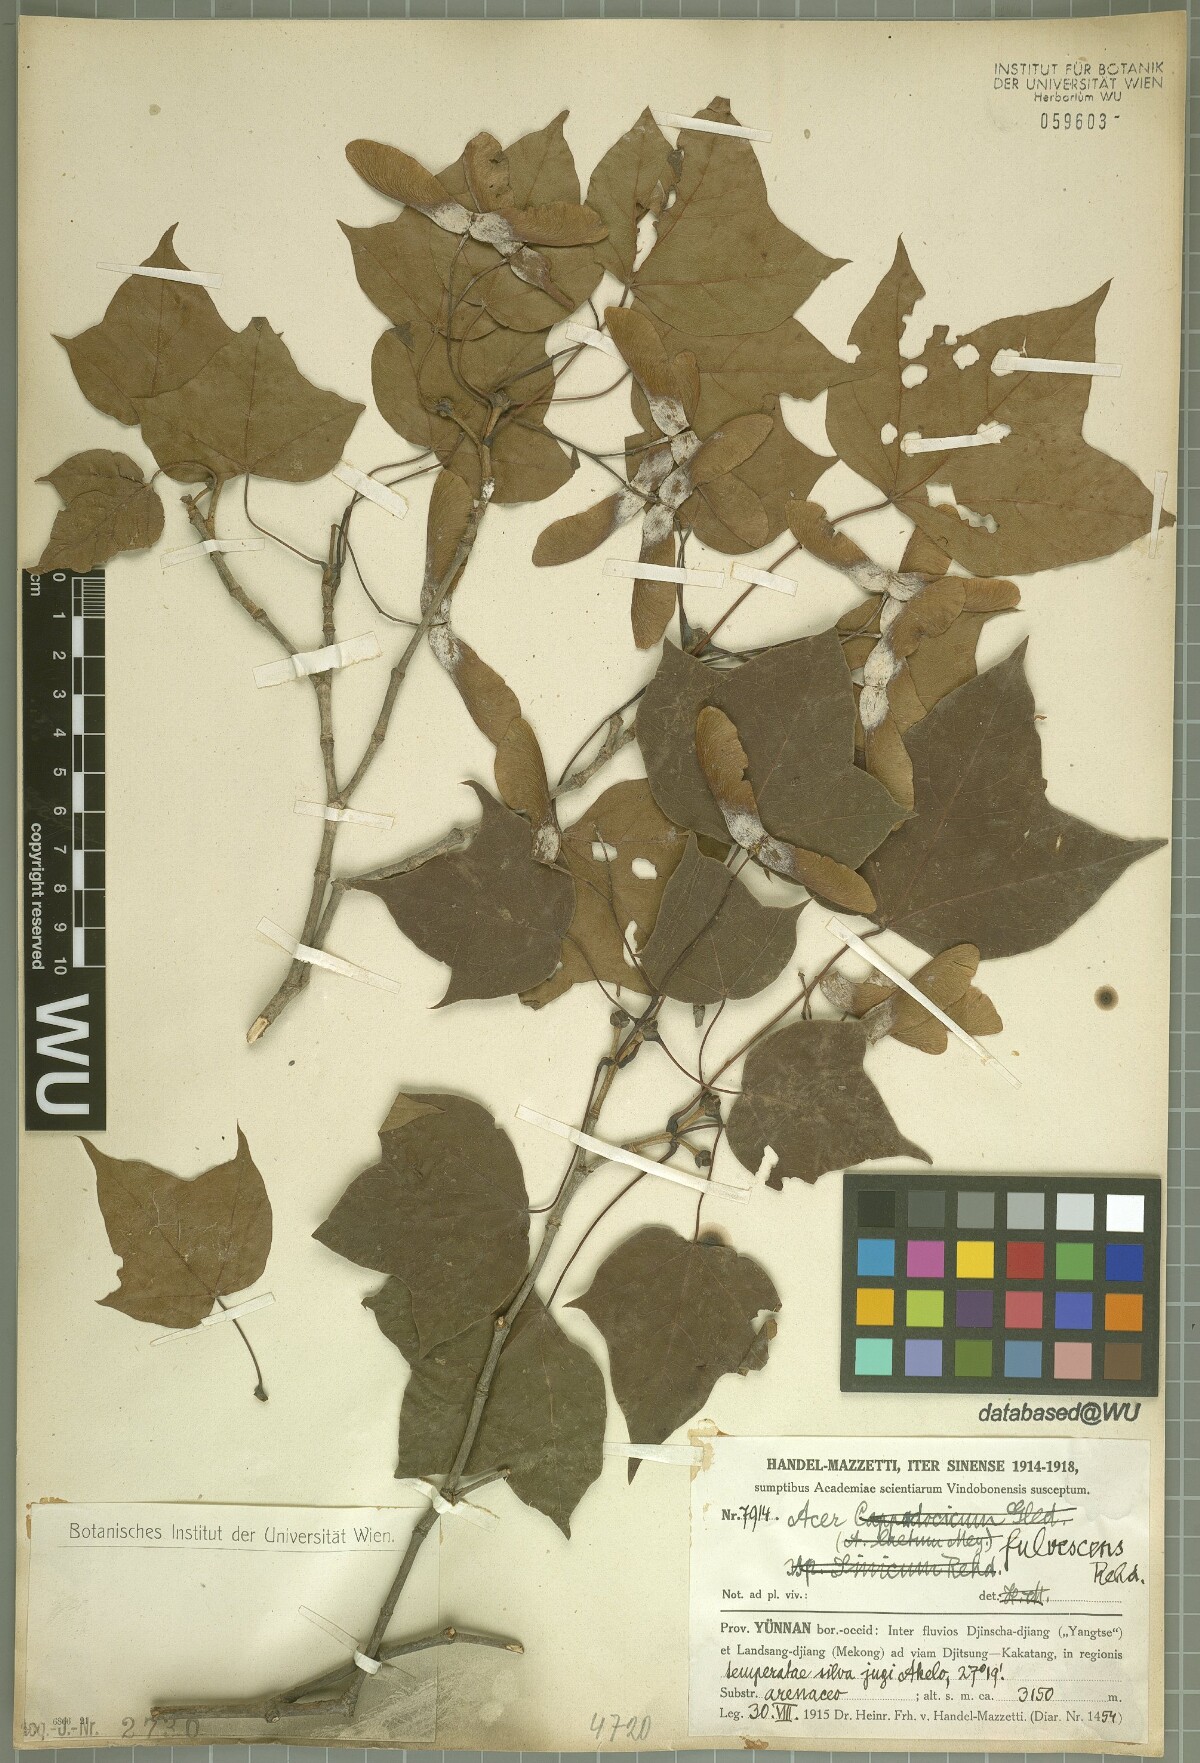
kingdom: Plantae
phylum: Tracheophyta
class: Magnoliopsida
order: Sapindales
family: Sapindaceae
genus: Acer
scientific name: Acer longipes
